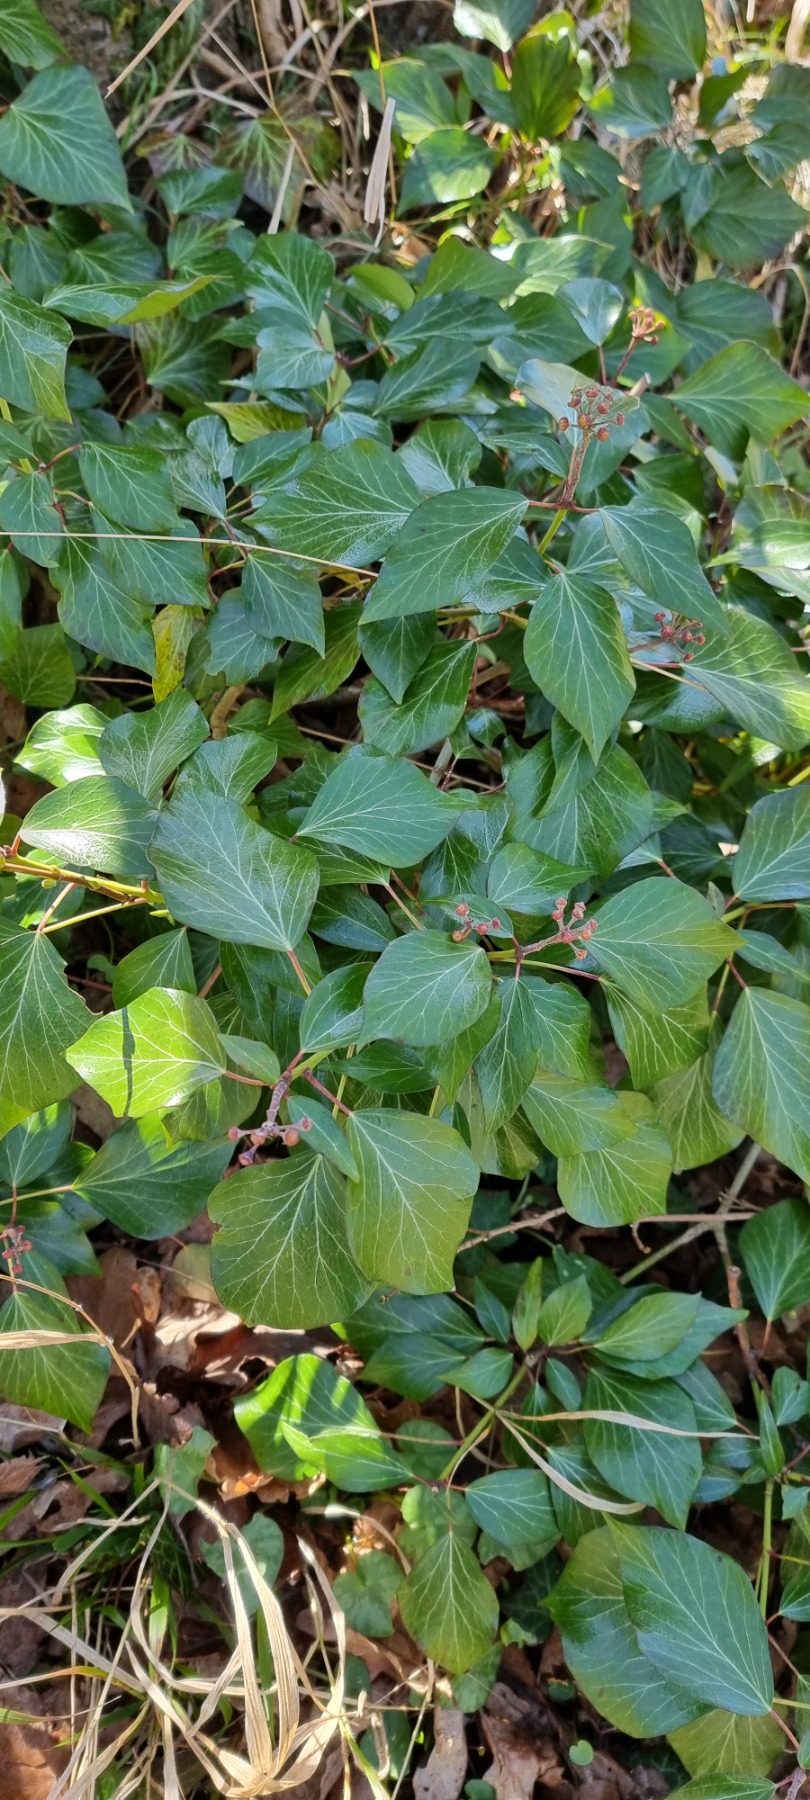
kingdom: Plantae
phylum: Tracheophyta
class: Magnoliopsida
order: Apiales
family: Araliaceae
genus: Hedera
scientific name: Hedera helix
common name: Vedbend
